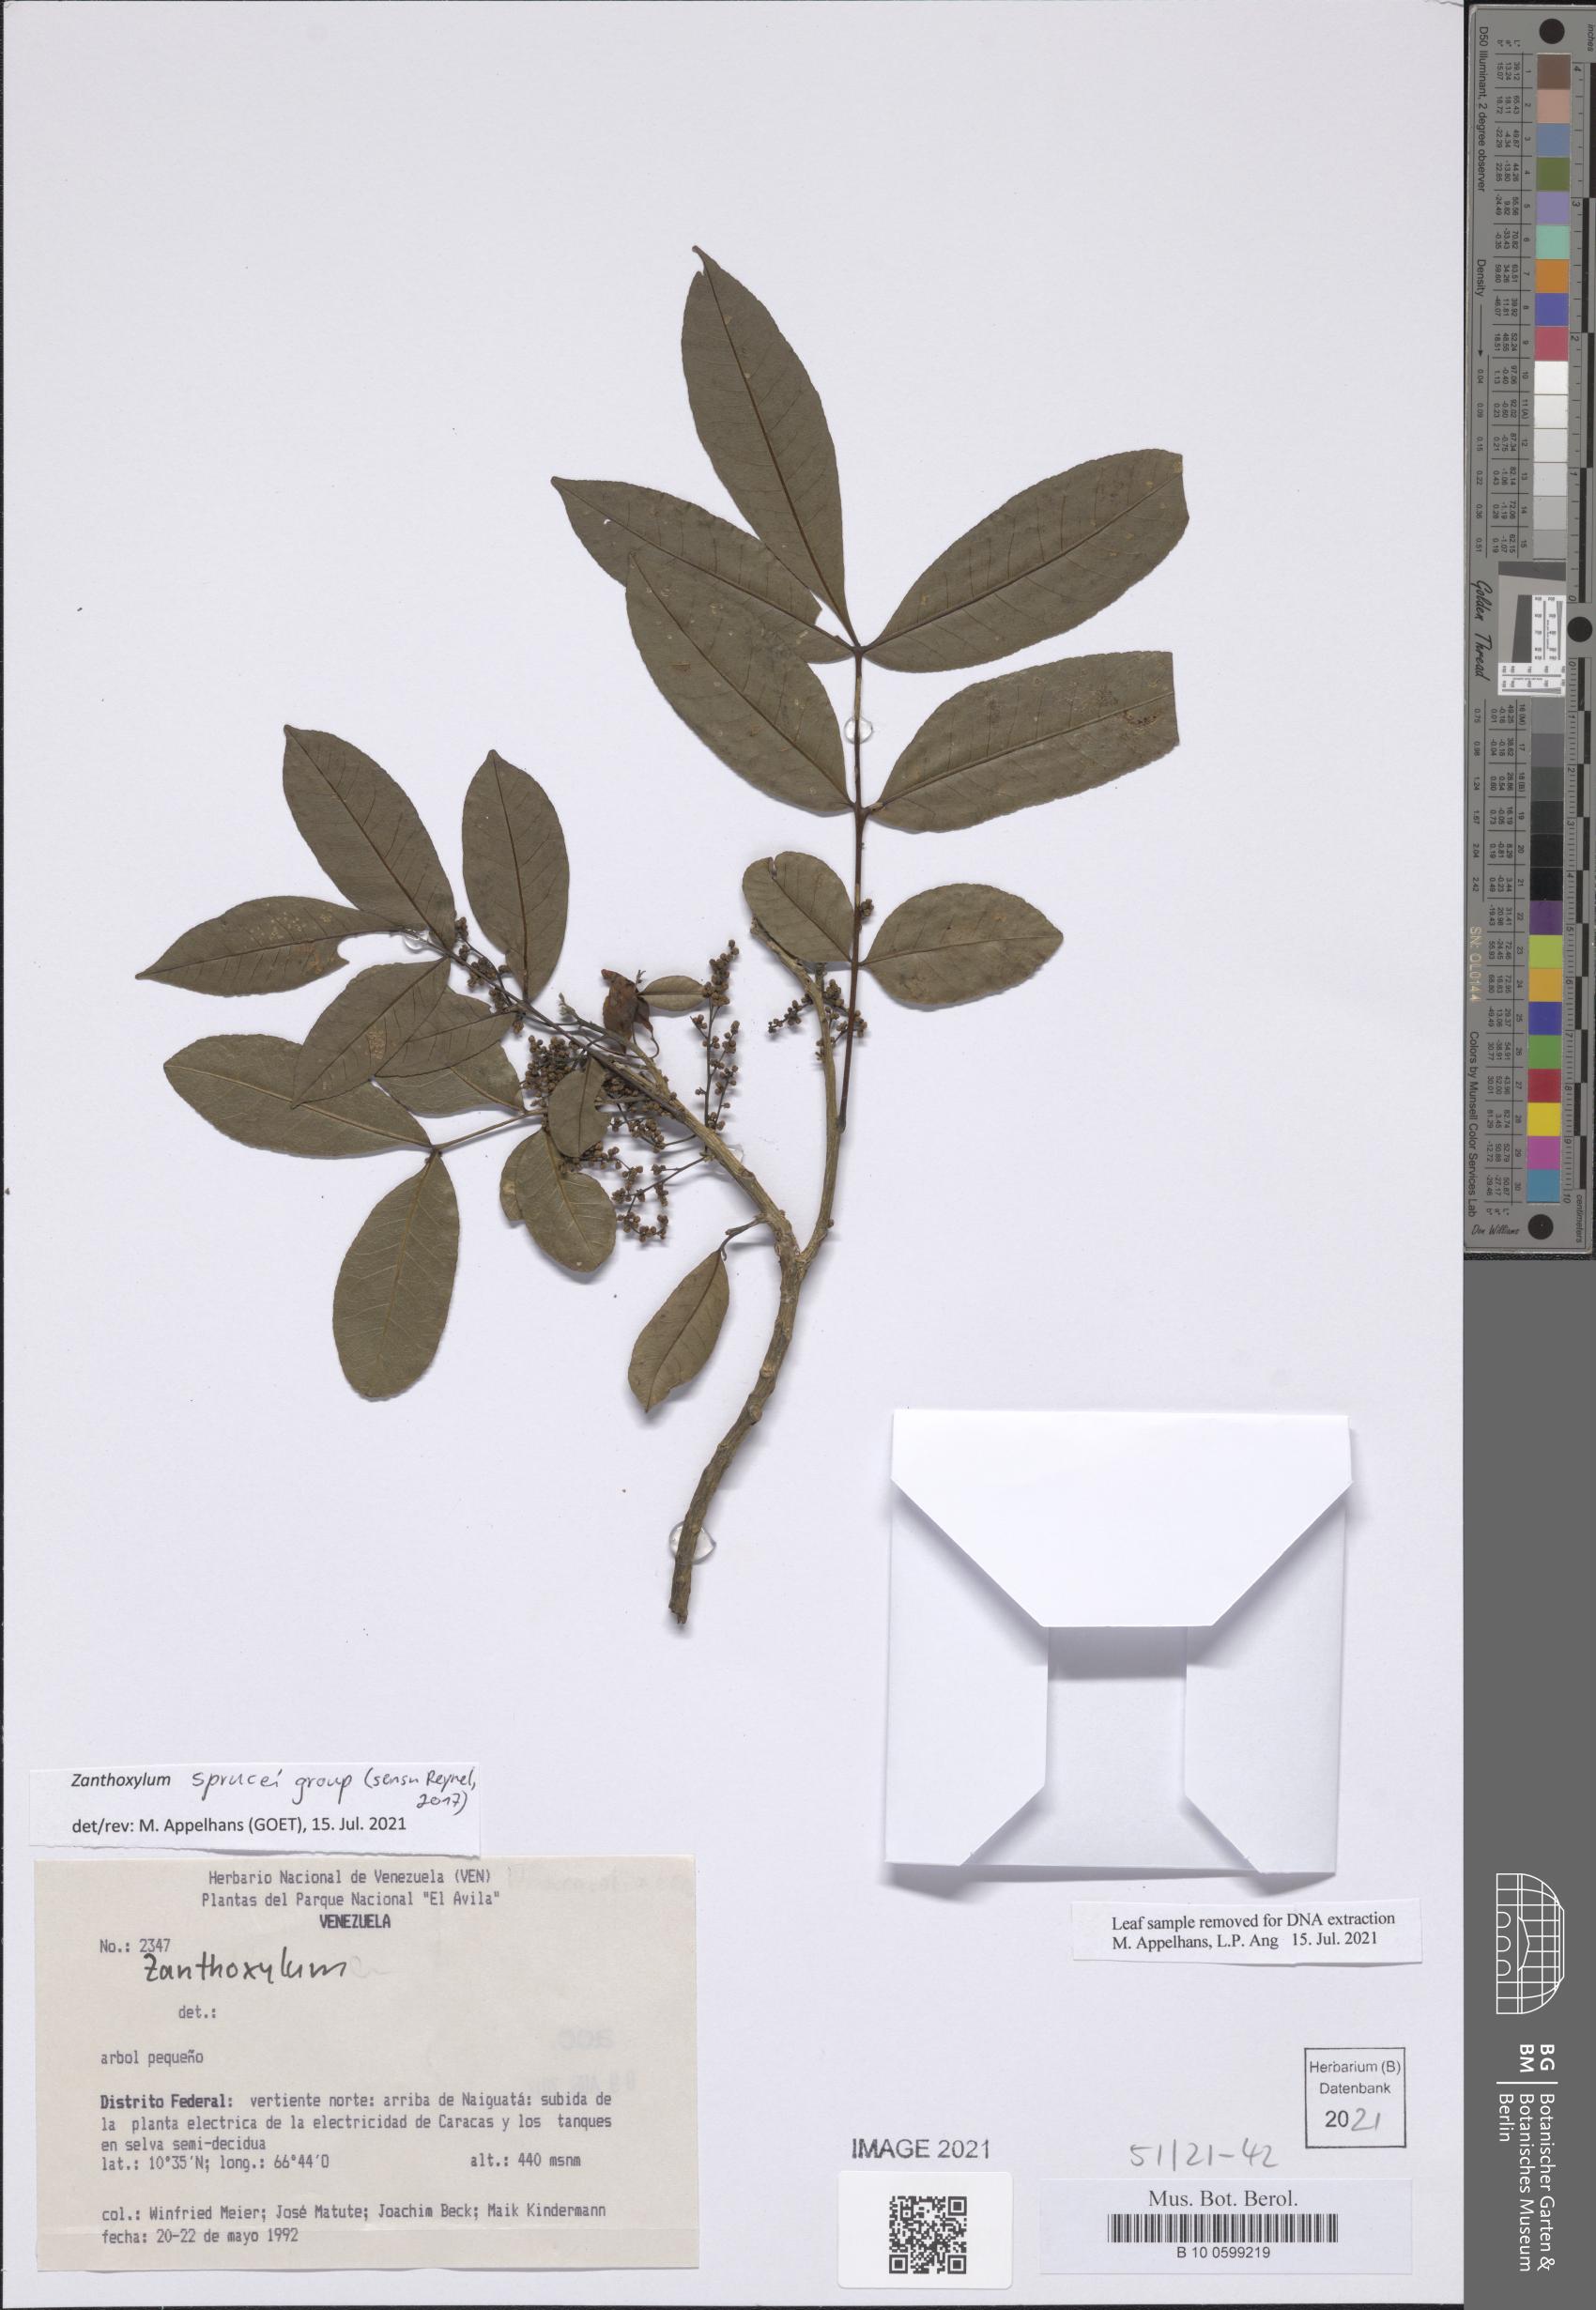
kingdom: Plantae
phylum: Tracheophyta
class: Magnoliopsida
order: Sapindales
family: Rutaceae
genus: Zanthoxylum
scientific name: Zanthoxylum sprucei
